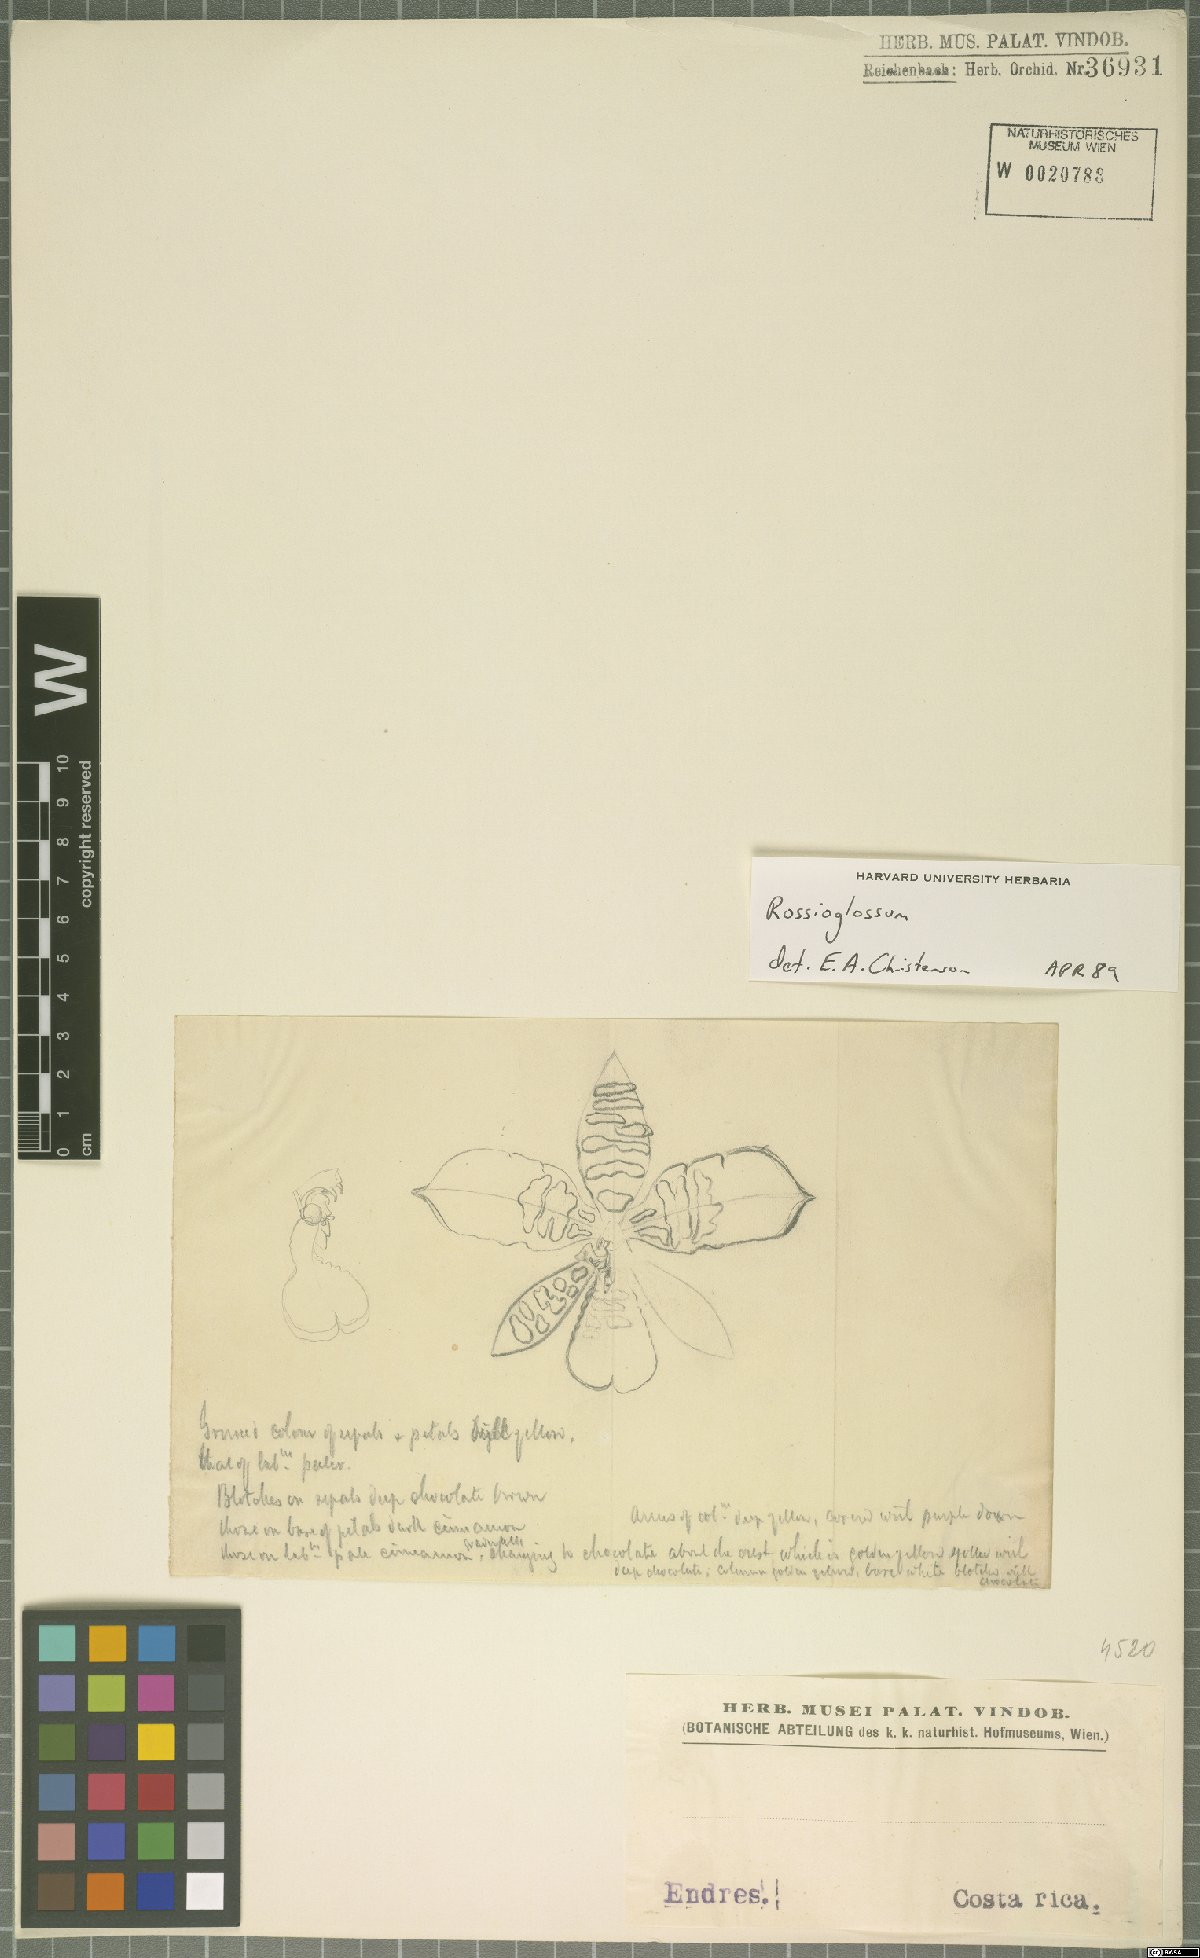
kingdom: Plantae
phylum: Tracheophyta
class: Liliopsida
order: Asparagales
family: Orchidaceae
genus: Rossioglossum
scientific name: Rossioglossum
